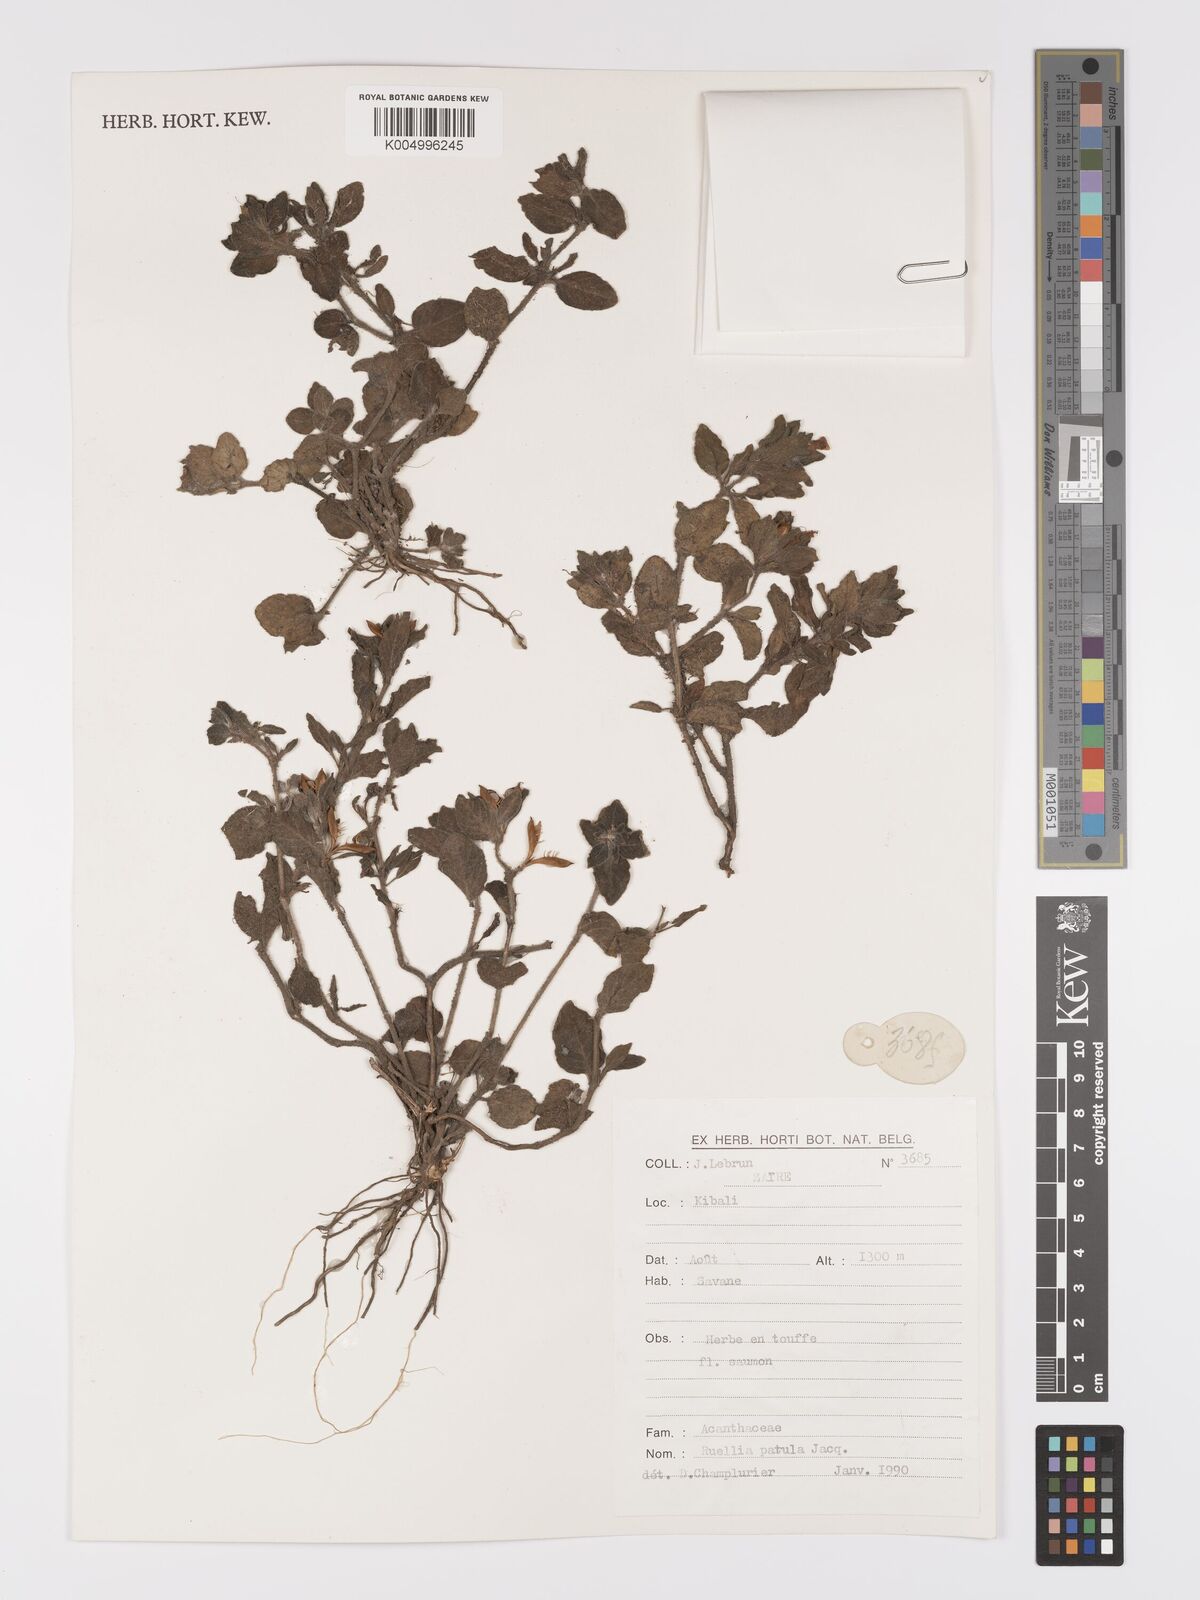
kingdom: Plantae
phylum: Tracheophyta
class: Magnoliopsida
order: Lamiales
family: Acanthaceae
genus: Ruellia
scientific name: Ruellia patula
